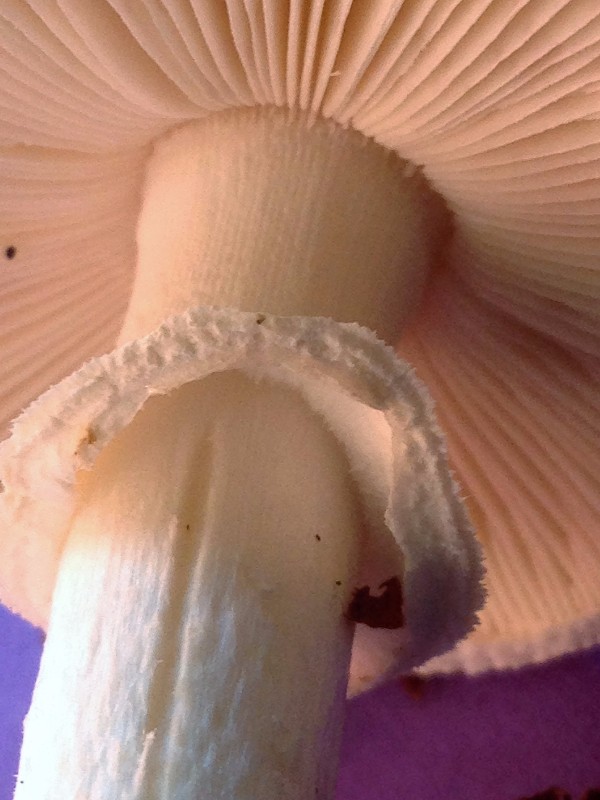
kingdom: Fungi
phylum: Basidiomycota
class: Agaricomycetes
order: Agaricales
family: Amanitaceae
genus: Amanita
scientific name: Amanita citrina
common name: False death-cap
